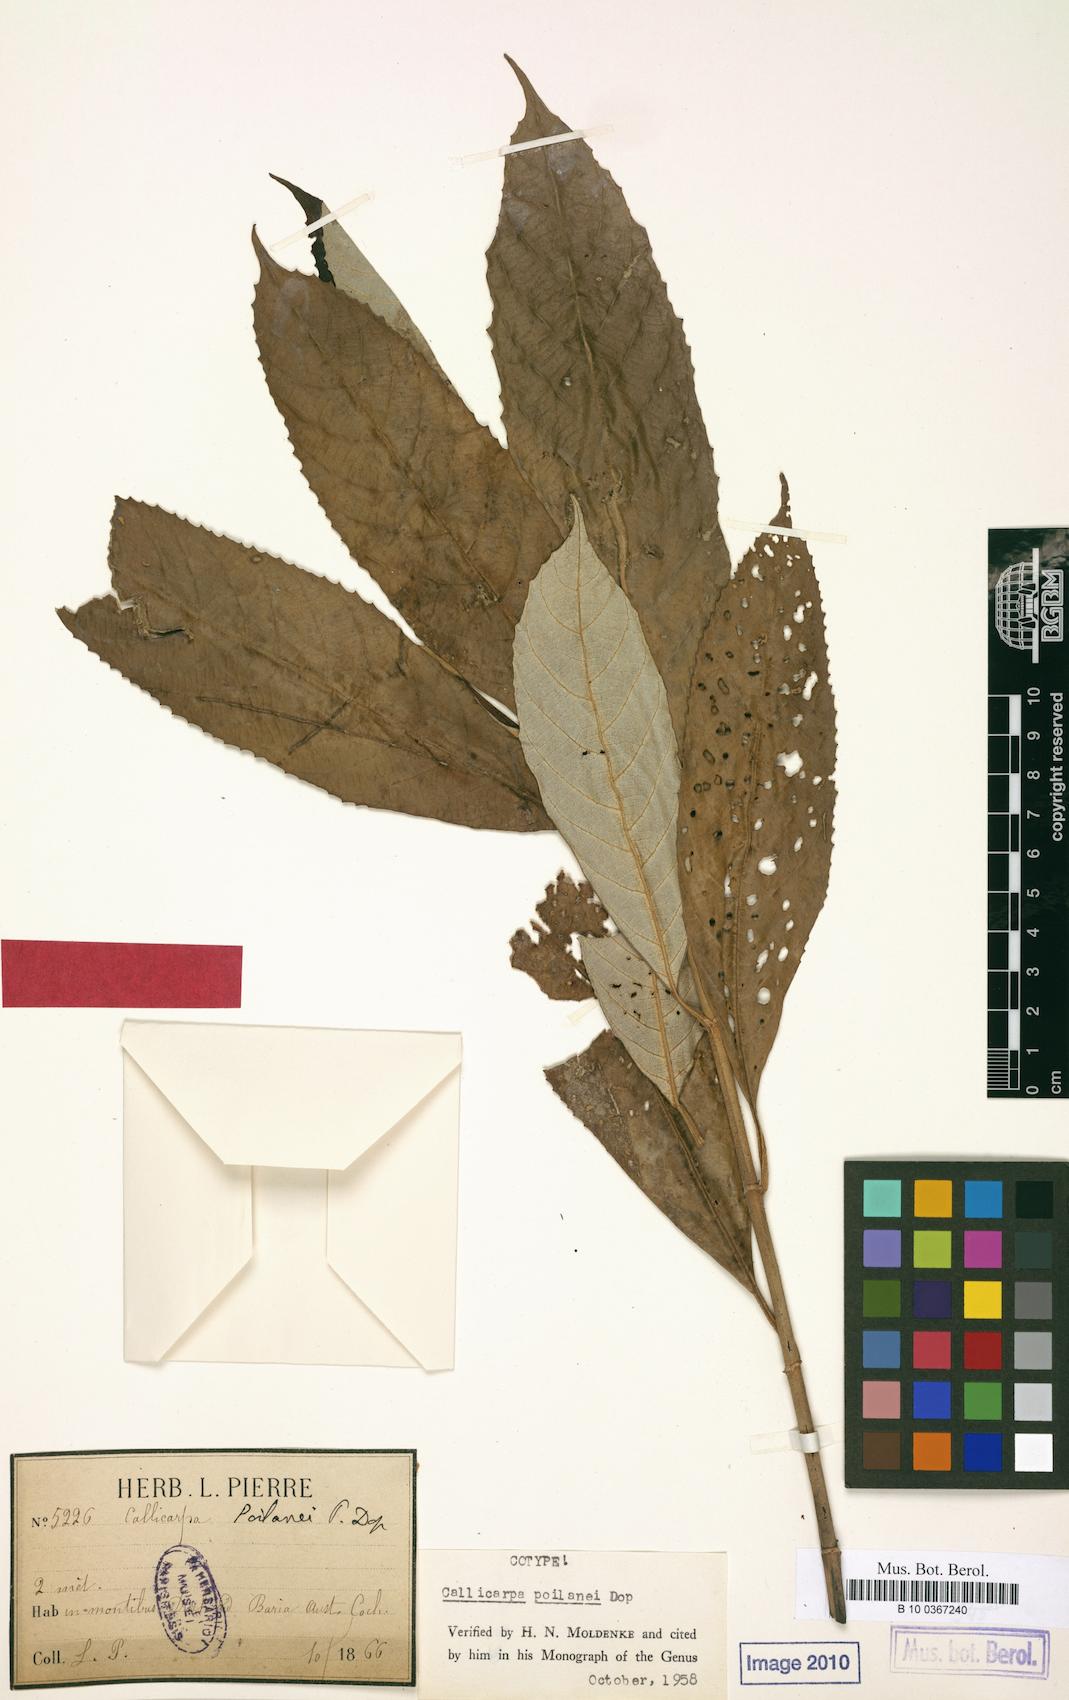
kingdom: Plantae
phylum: Tracheophyta
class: Magnoliopsida
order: Lamiales
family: Lamiaceae
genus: Callicarpa
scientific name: Callicarpa angustifolia
